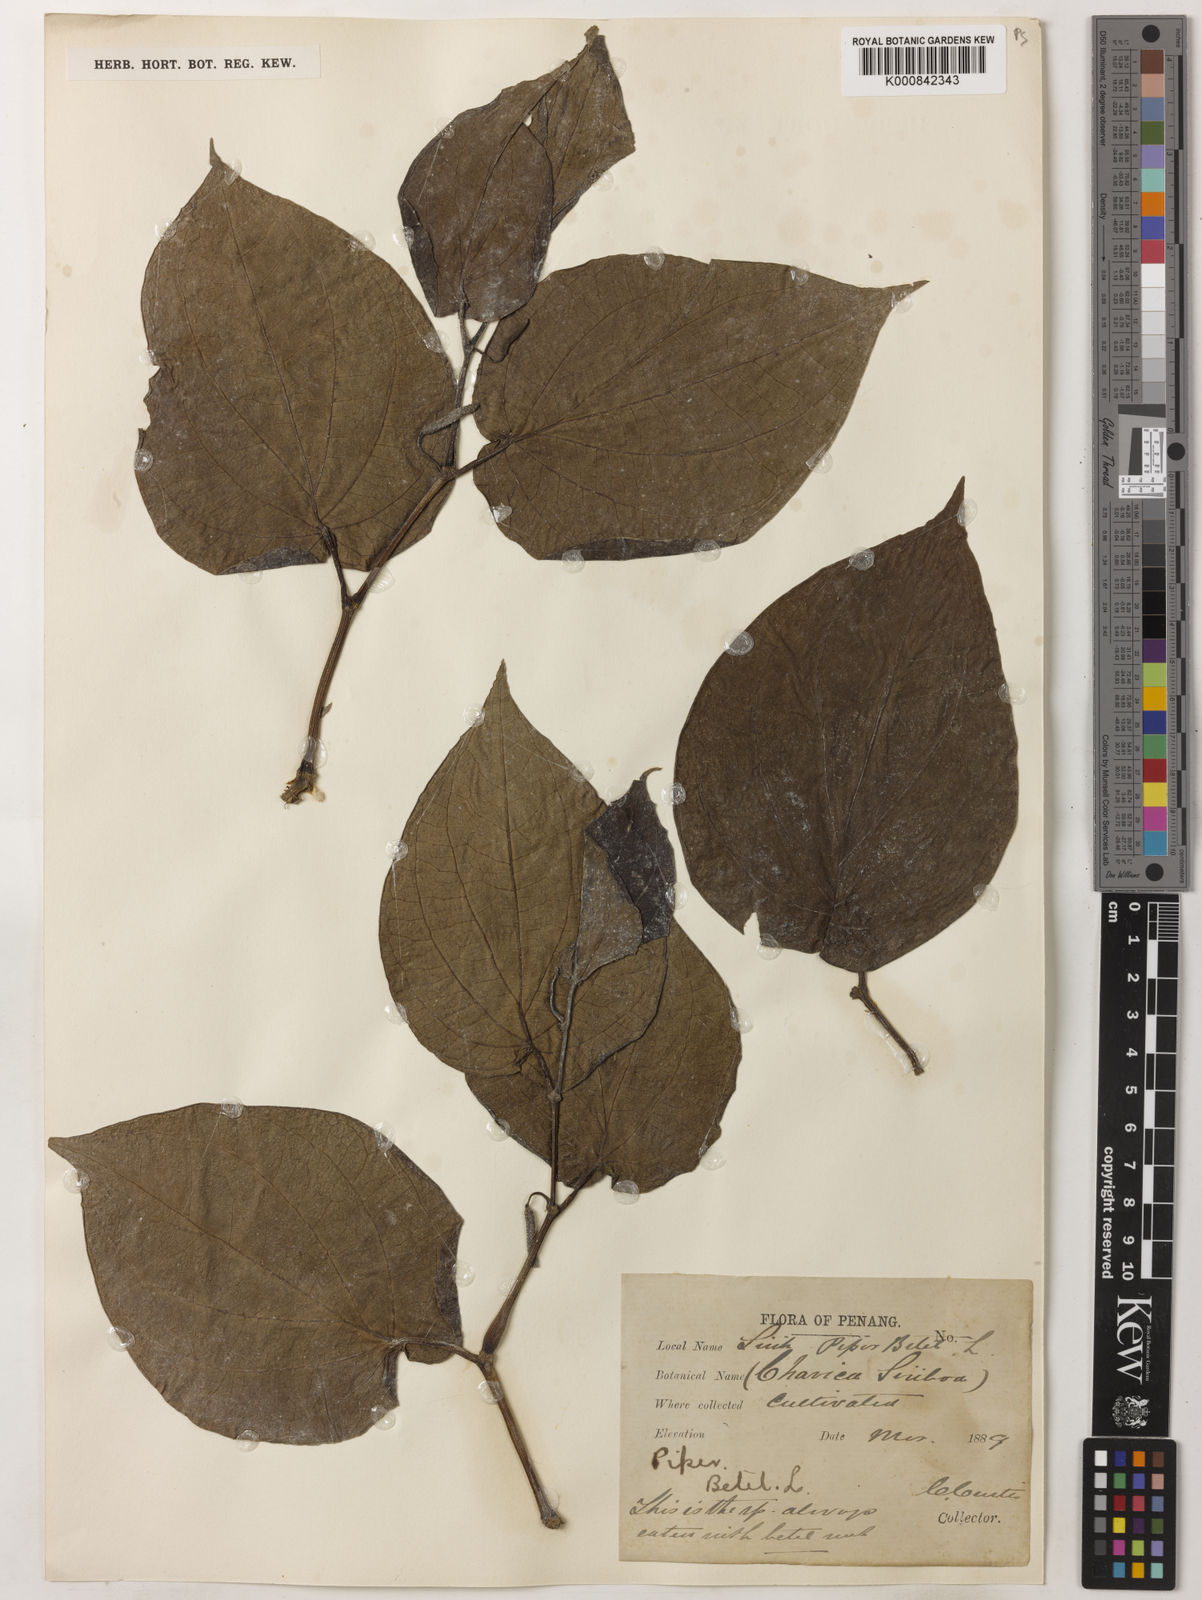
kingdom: Plantae
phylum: Tracheophyta
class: Magnoliopsida
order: Piperales
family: Piperaceae
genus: Piper
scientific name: Piper betle
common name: Betel pepper
